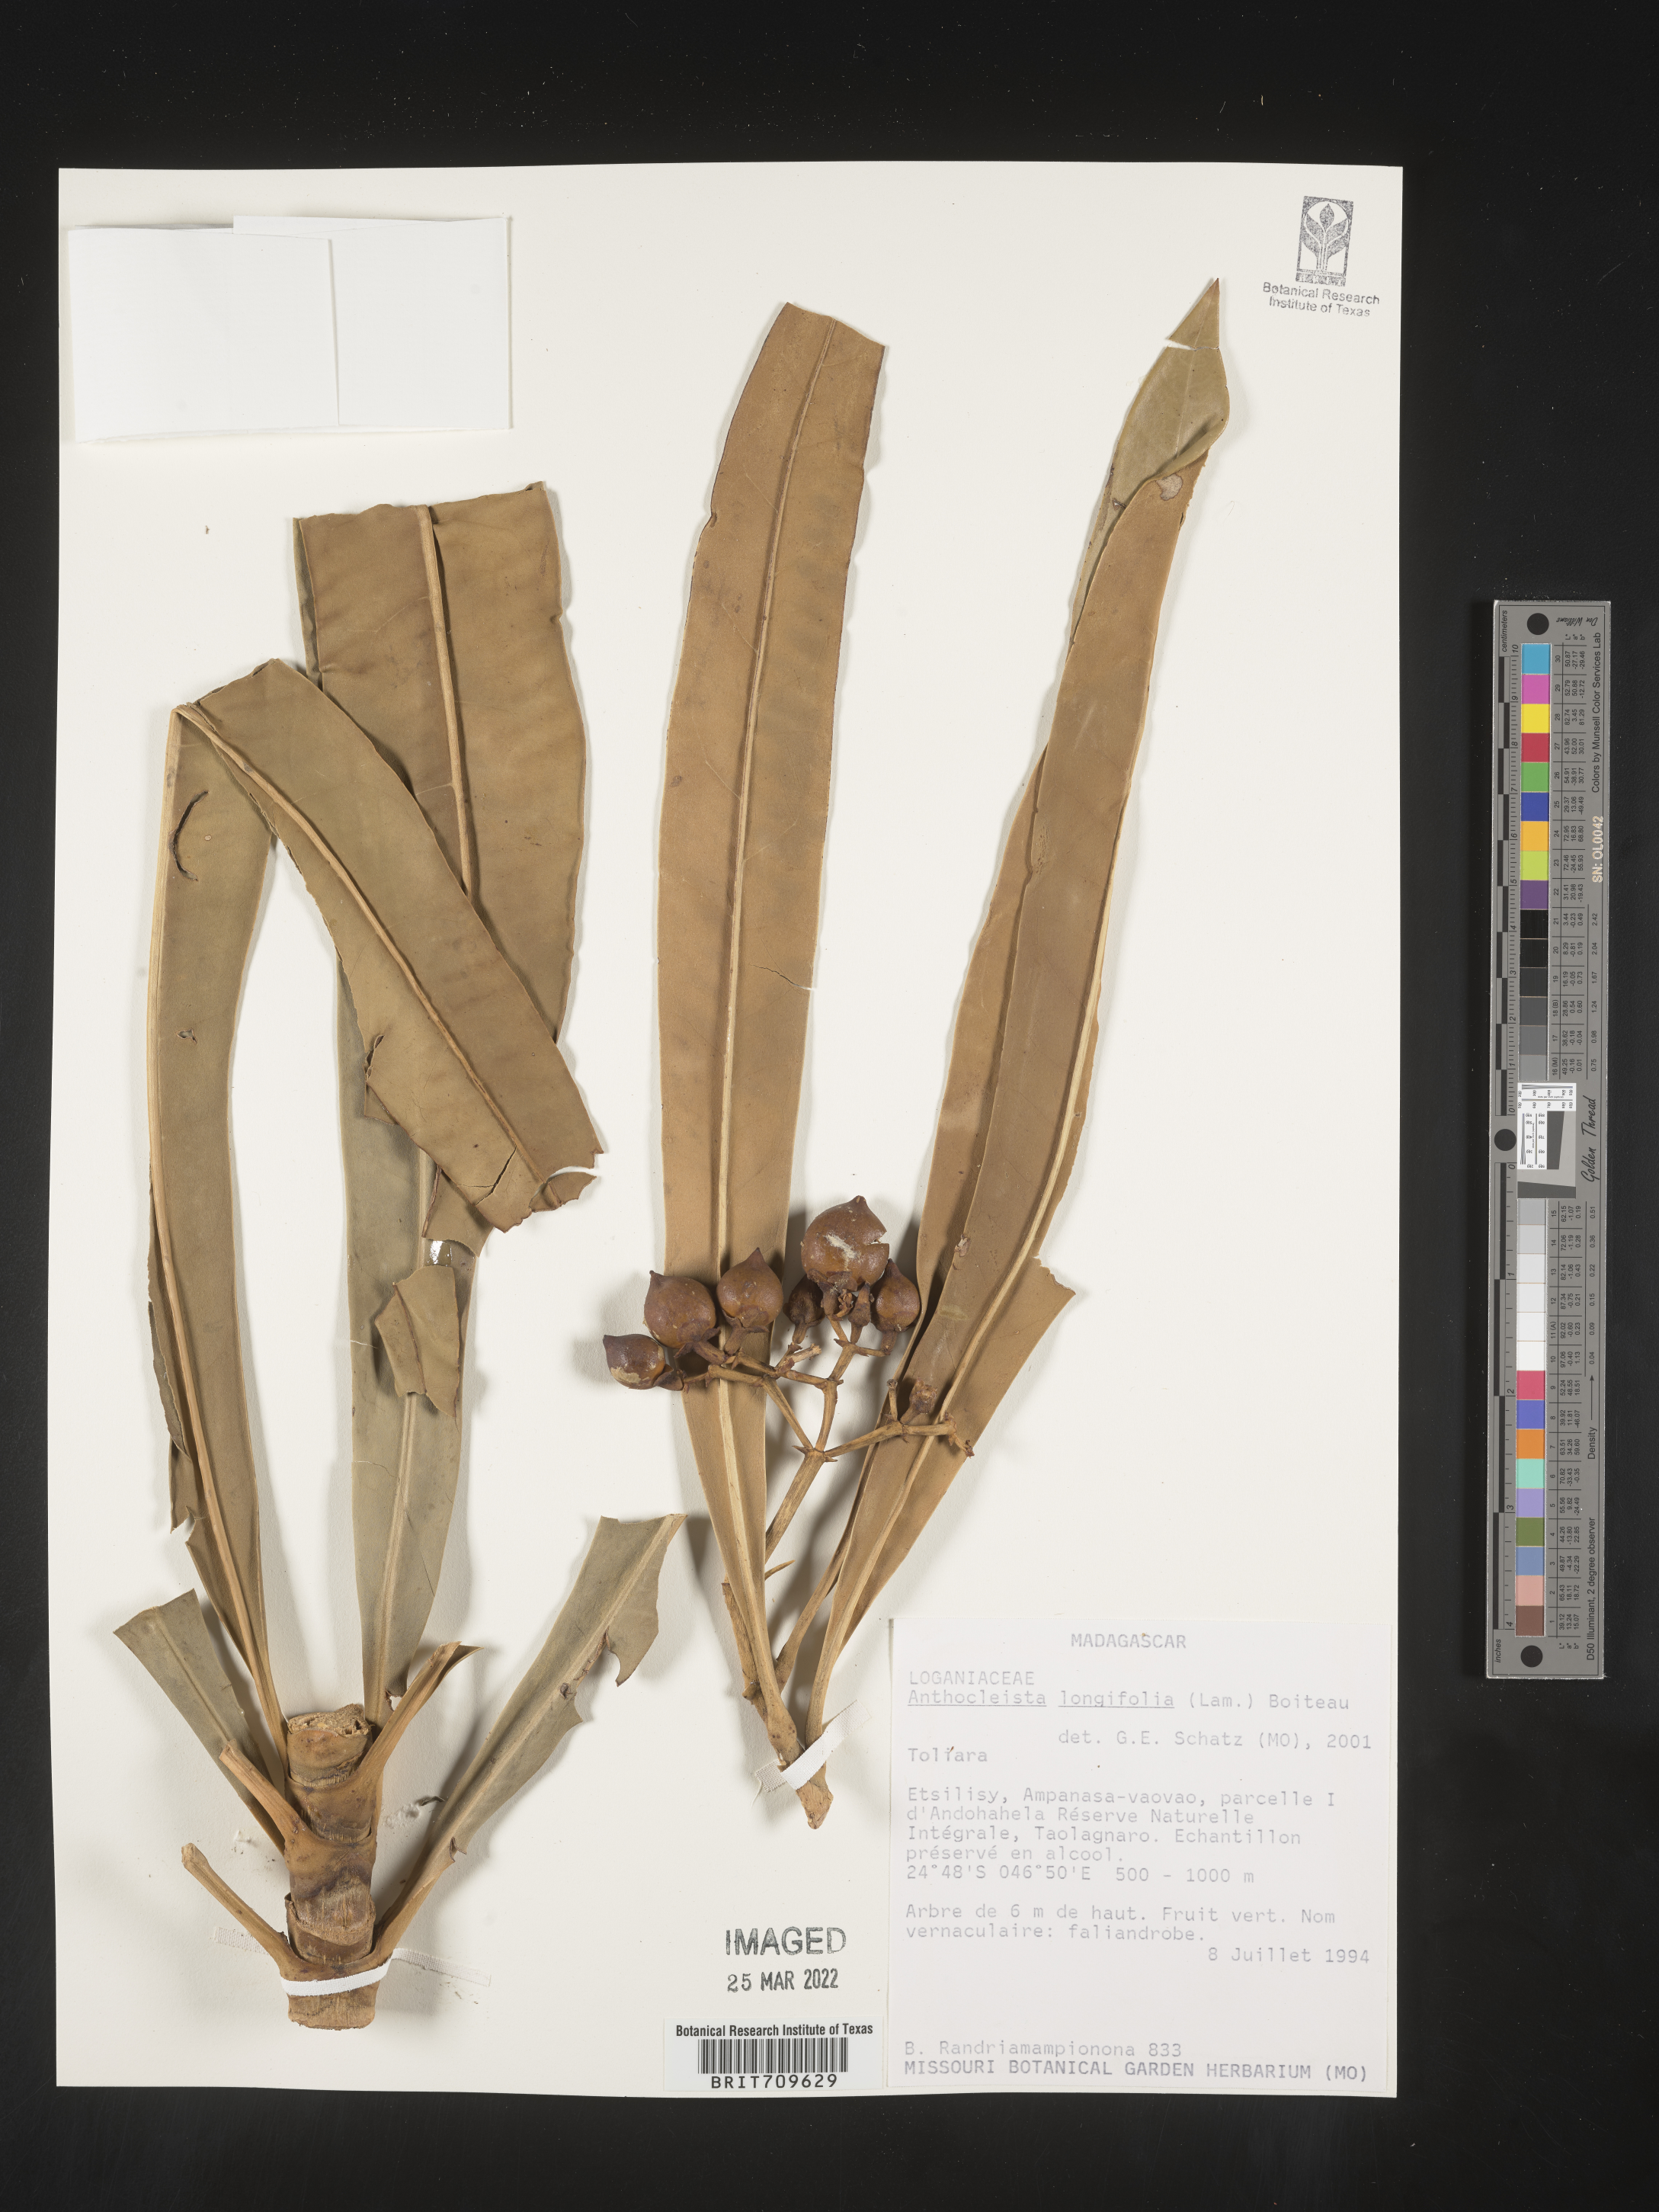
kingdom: Plantae
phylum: Tracheophyta
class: Magnoliopsida
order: Gentianales
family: Gentianaceae
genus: Anthocleista
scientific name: Anthocleista
